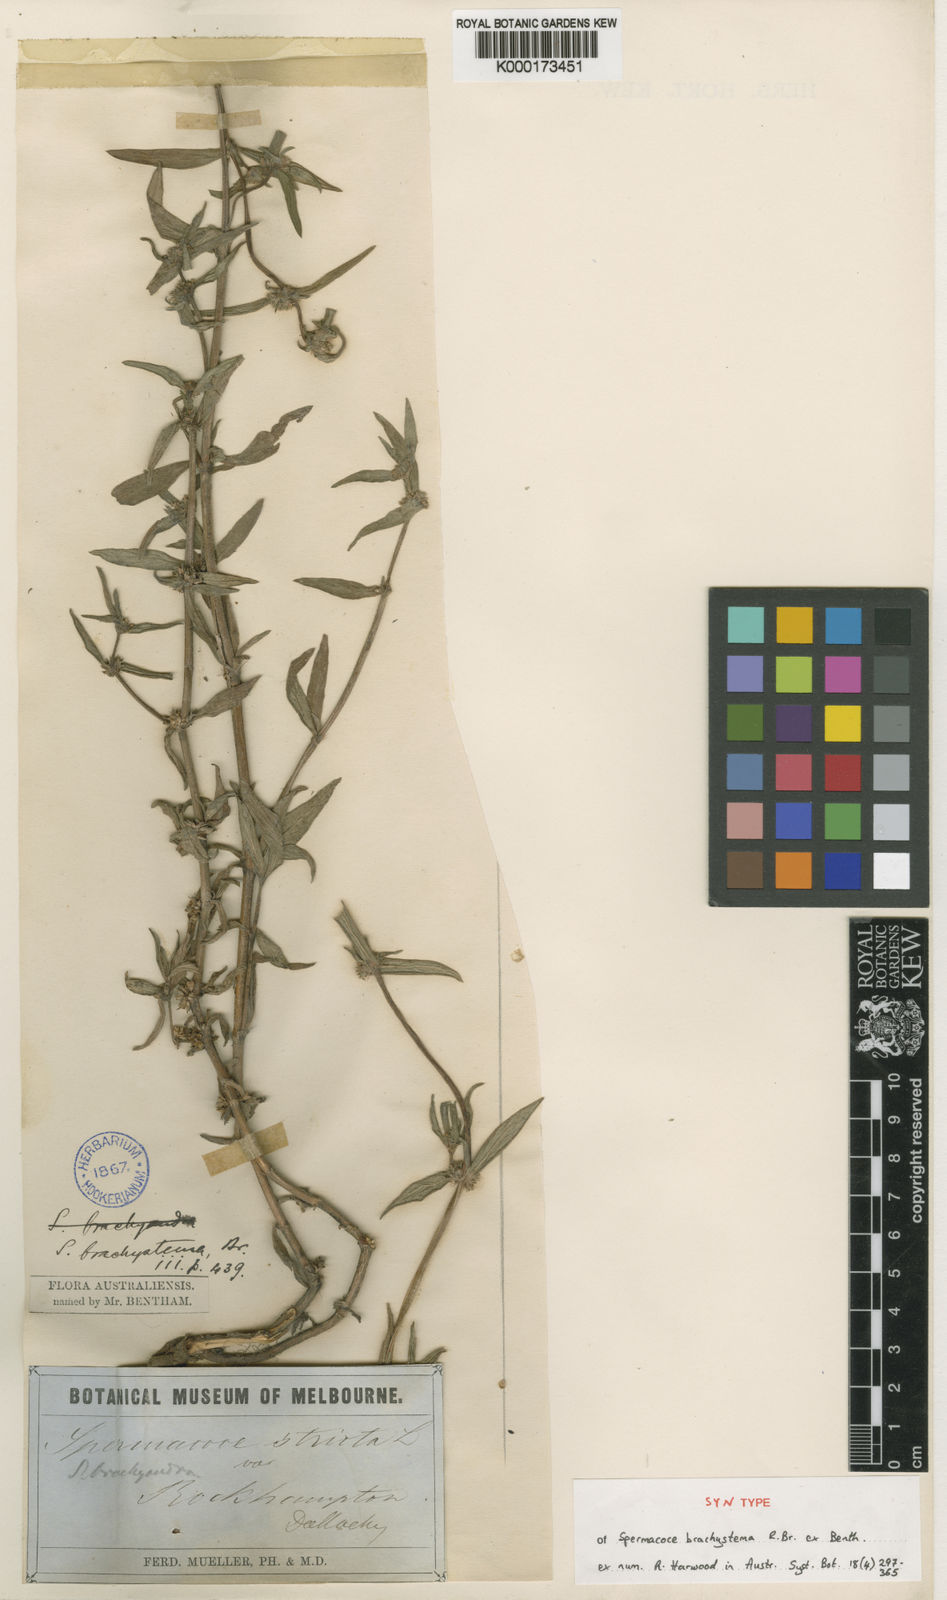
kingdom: Plantae
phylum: Tracheophyta
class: Magnoliopsida
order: Gentianales
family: Rubiaceae
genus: Spermacoce
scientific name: Spermacoce brachystema
